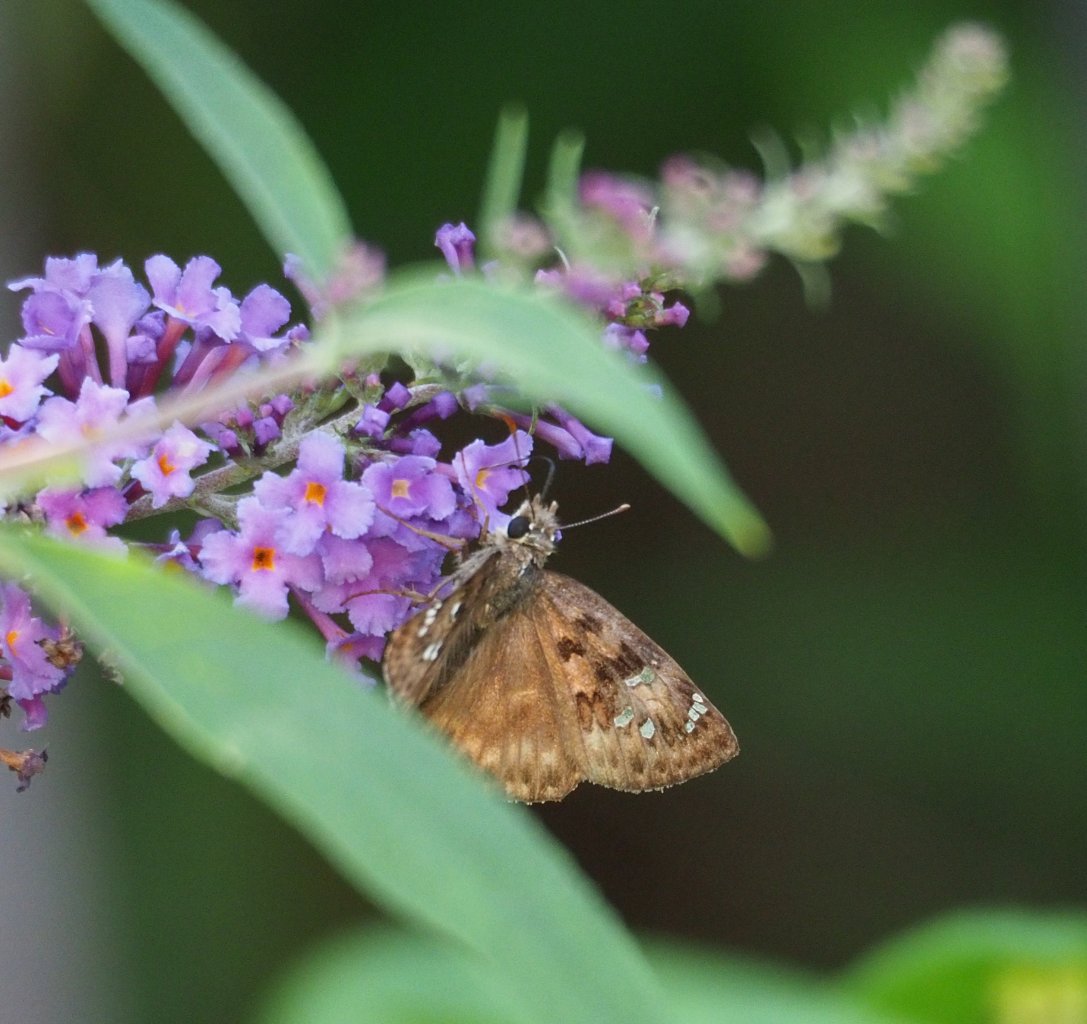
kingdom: Animalia
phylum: Arthropoda
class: Insecta
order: Lepidoptera
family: Hesperiidae
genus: Gesta
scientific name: Gesta
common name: Horace's Duskywing
